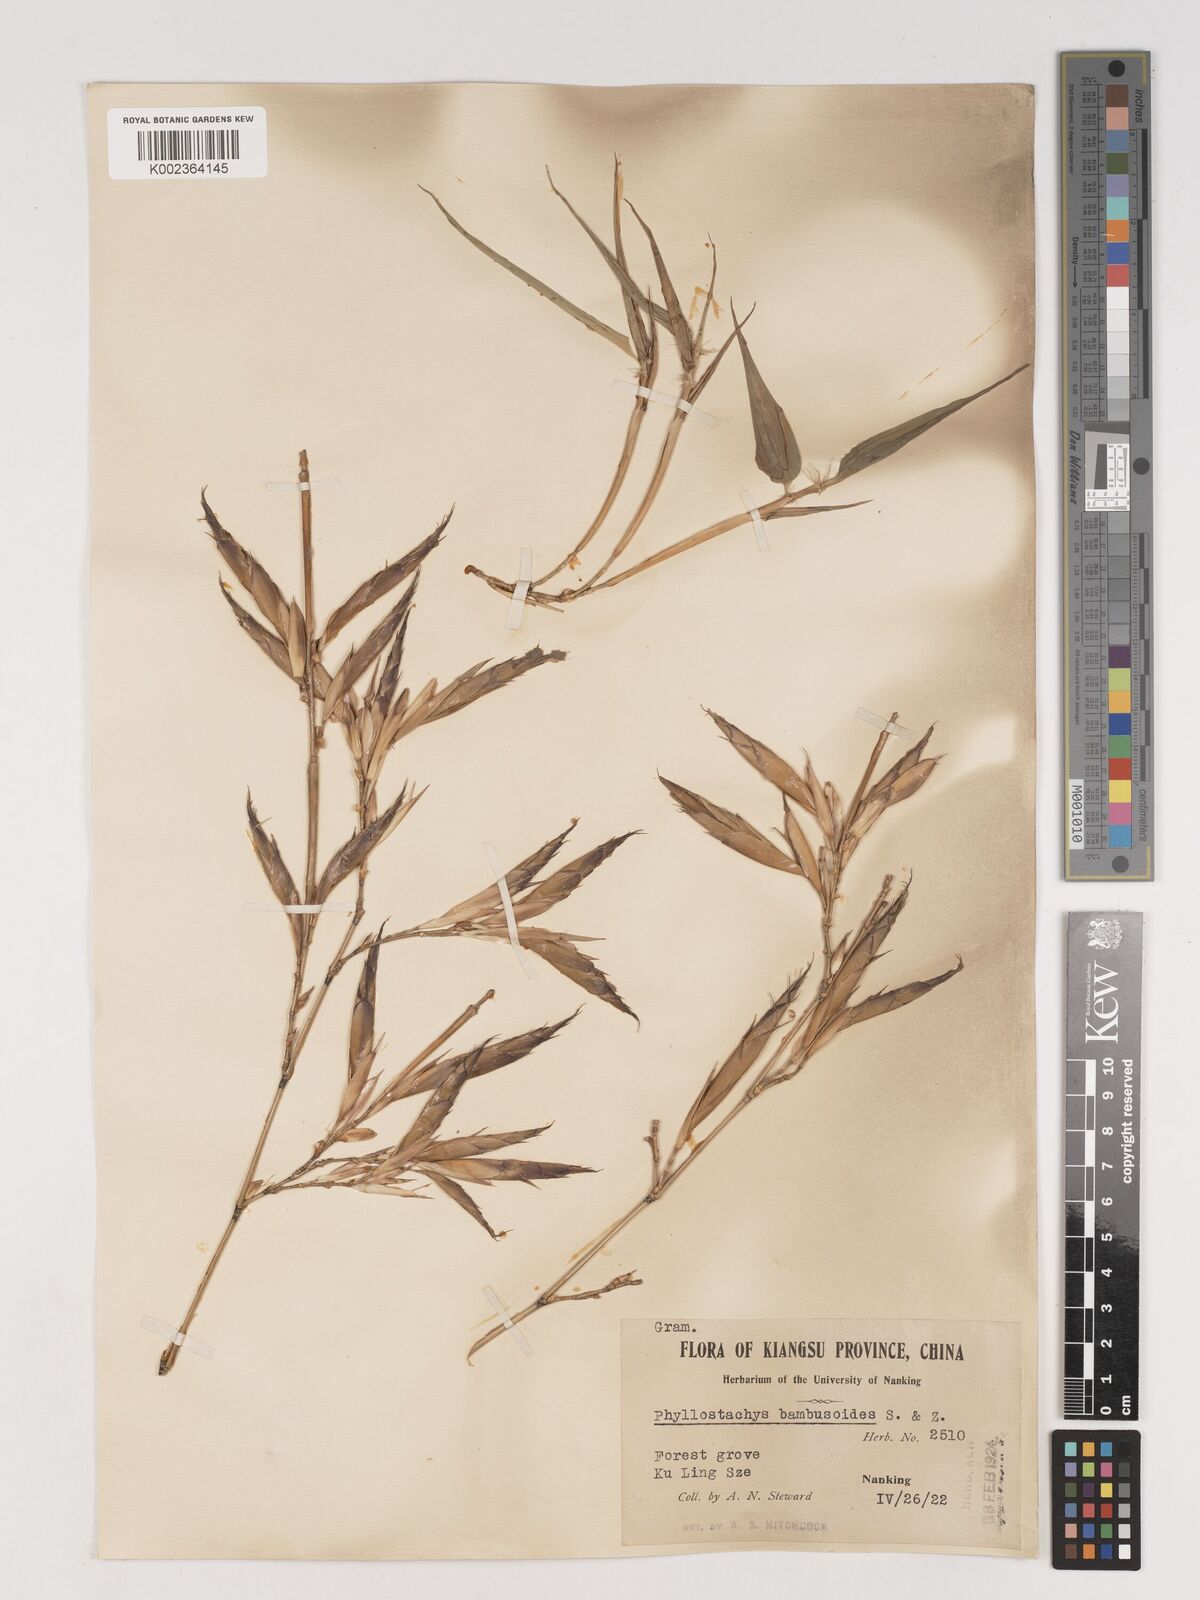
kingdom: Plantae
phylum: Tracheophyta
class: Liliopsida
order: Poales
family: Poaceae
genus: Phyllostachys
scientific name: Phyllostachys reticulata
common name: Bamboo
